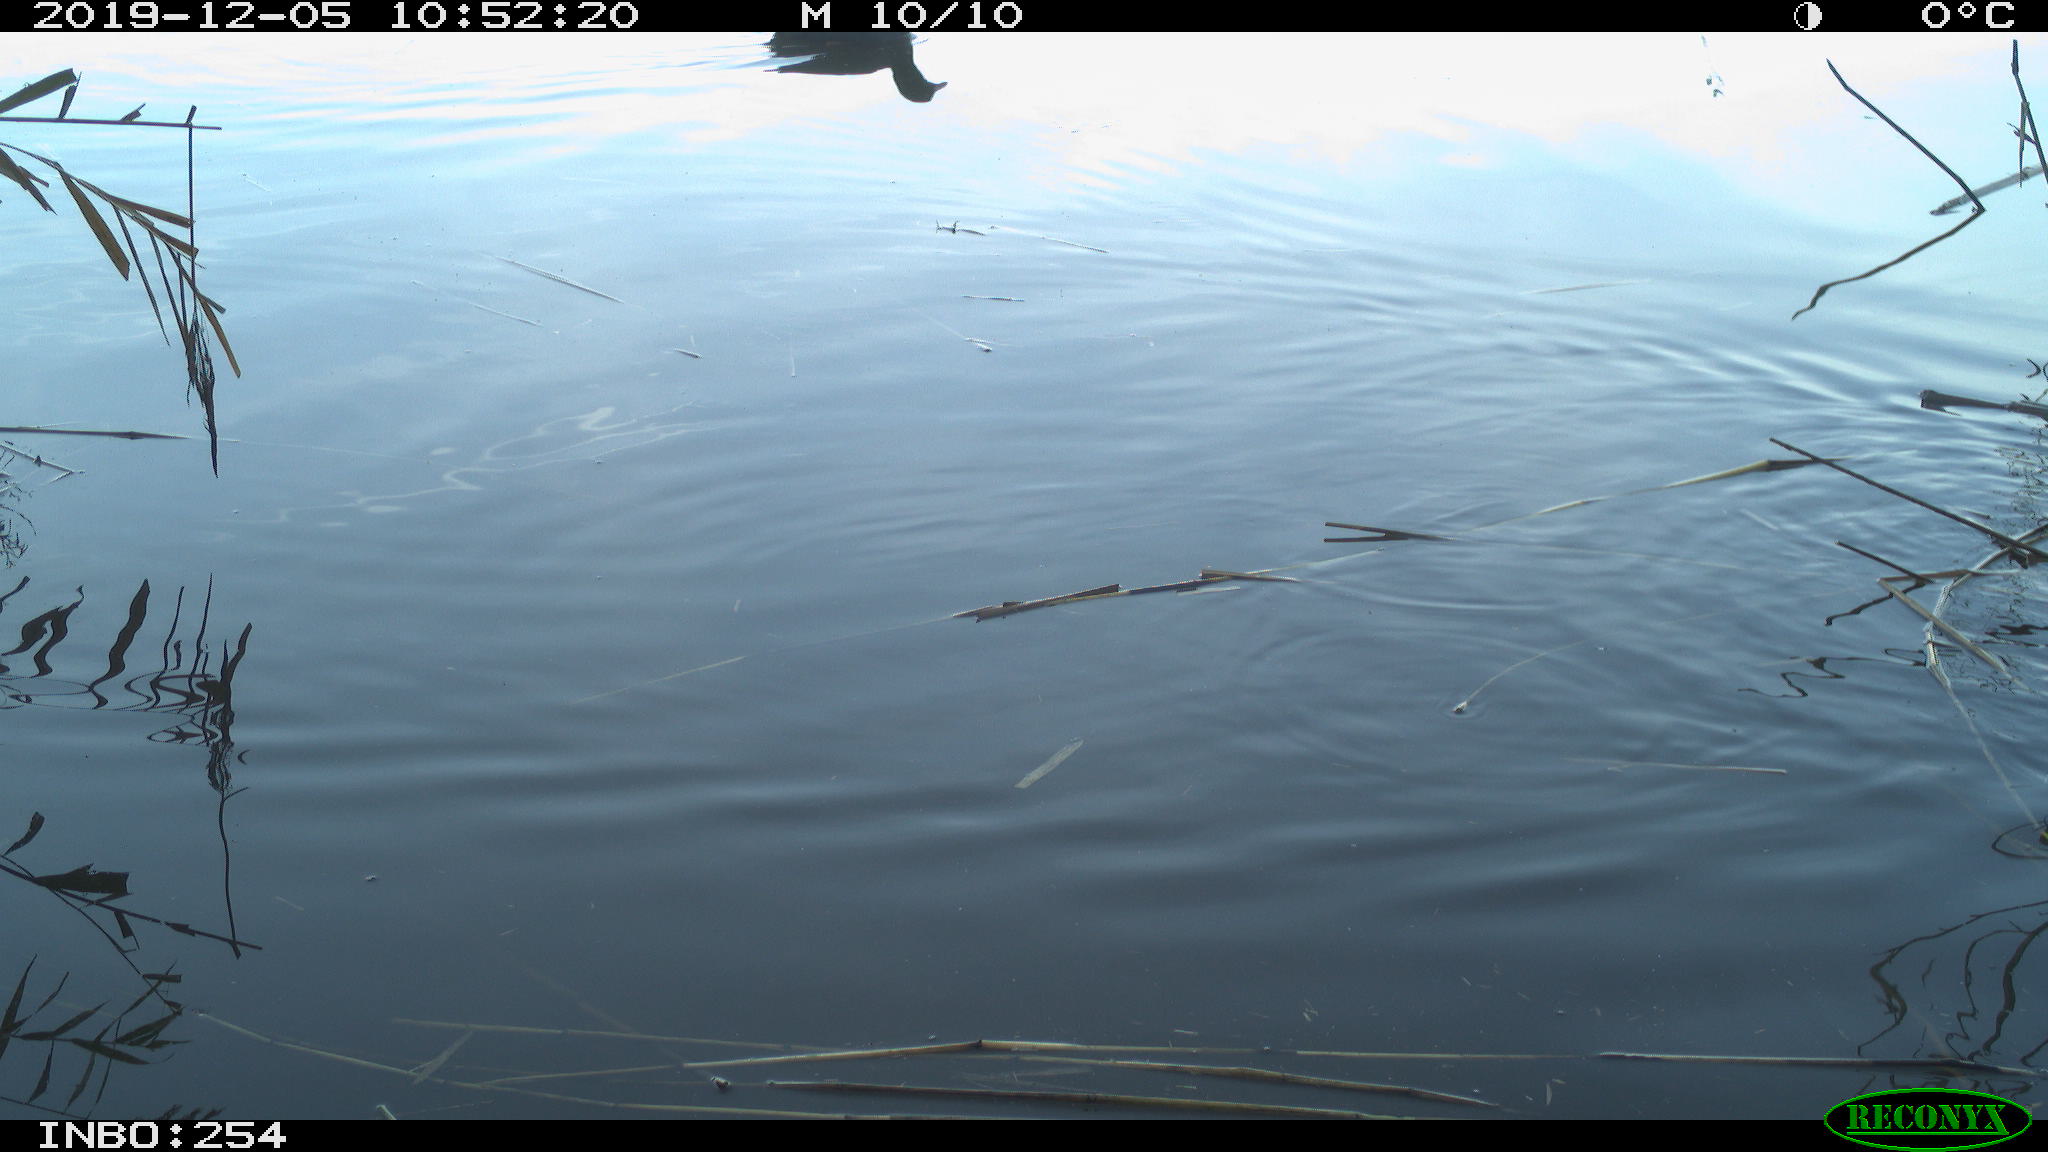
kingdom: Animalia
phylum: Chordata
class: Aves
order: Gruiformes
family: Rallidae
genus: Gallinula
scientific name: Gallinula chloropus
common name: Common moorhen
